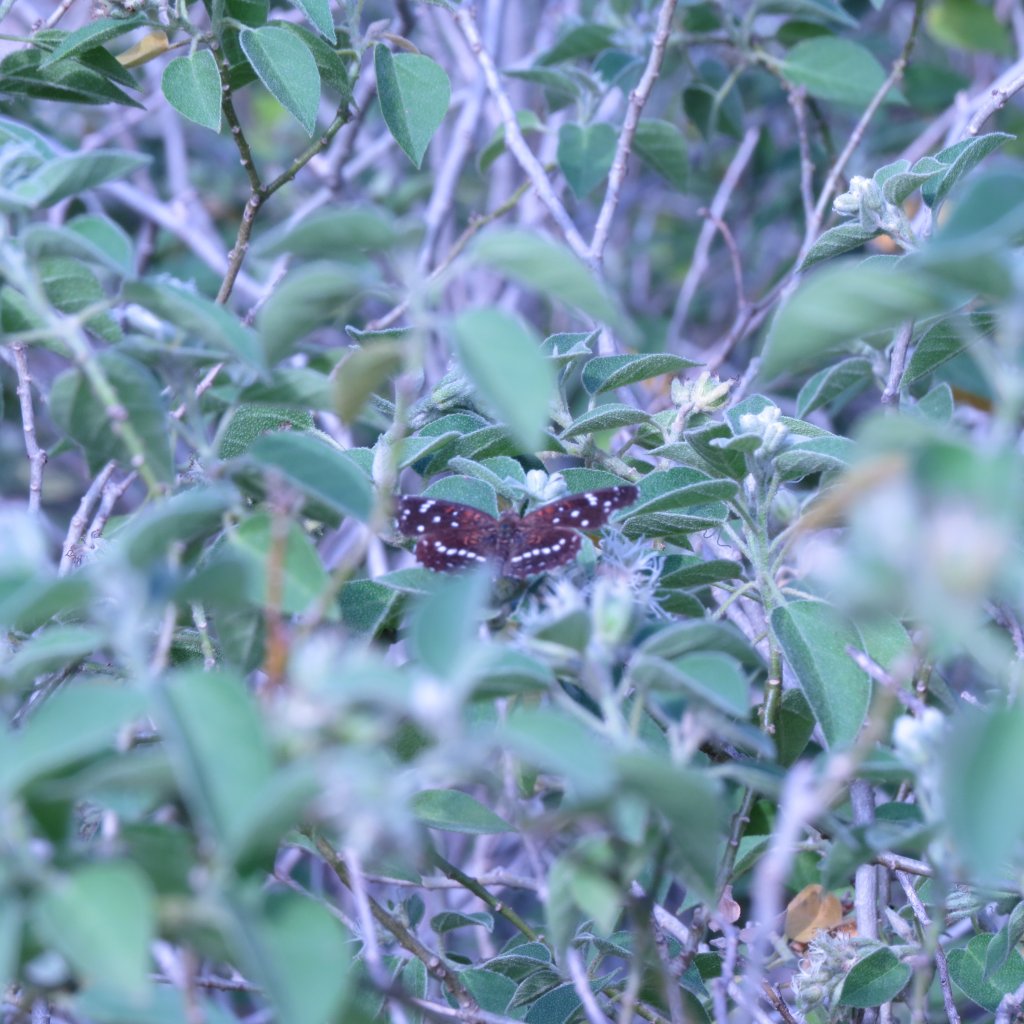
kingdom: Animalia
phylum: Arthropoda
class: Insecta
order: Lepidoptera
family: Nymphalidae
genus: Anthanassa
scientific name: Anthanassa texana
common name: Texan Crescent
